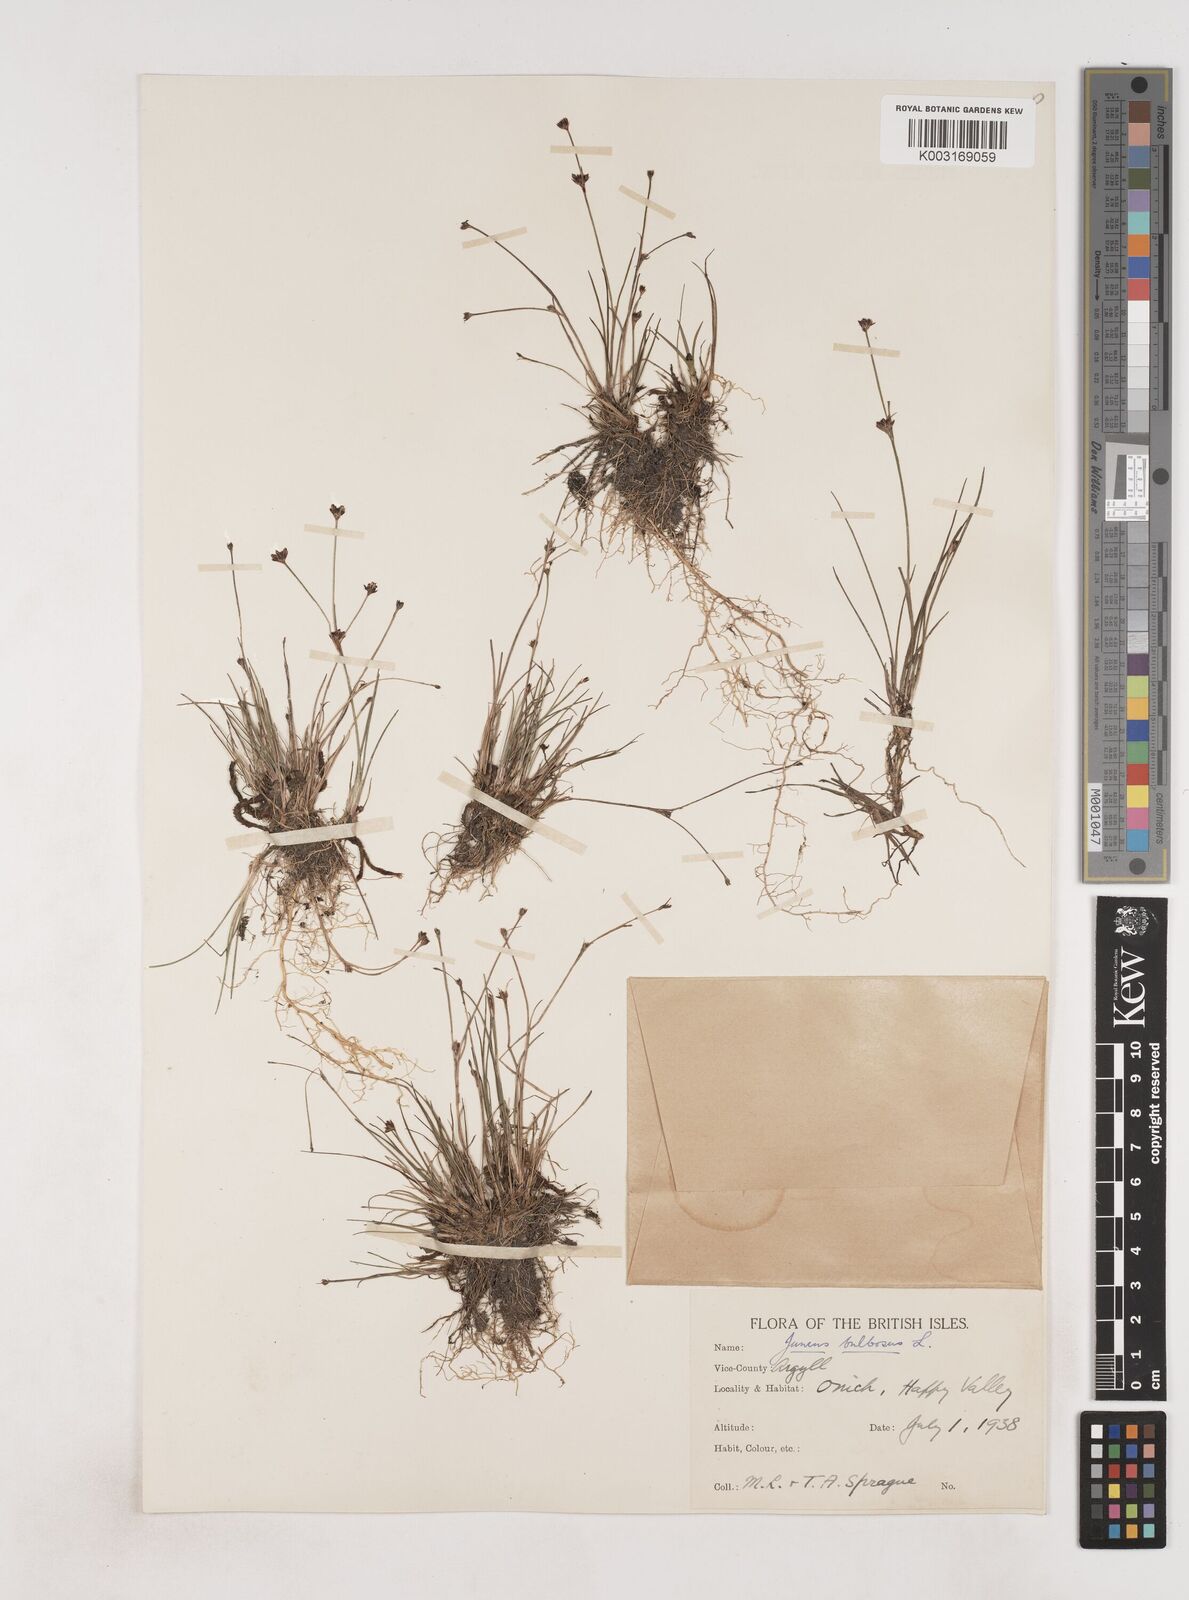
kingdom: Plantae
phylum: Tracheophyta
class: Liliopsida
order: Poales
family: Juncaceae
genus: Juncus
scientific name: Juncus bulbosus
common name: Bulbous rush
